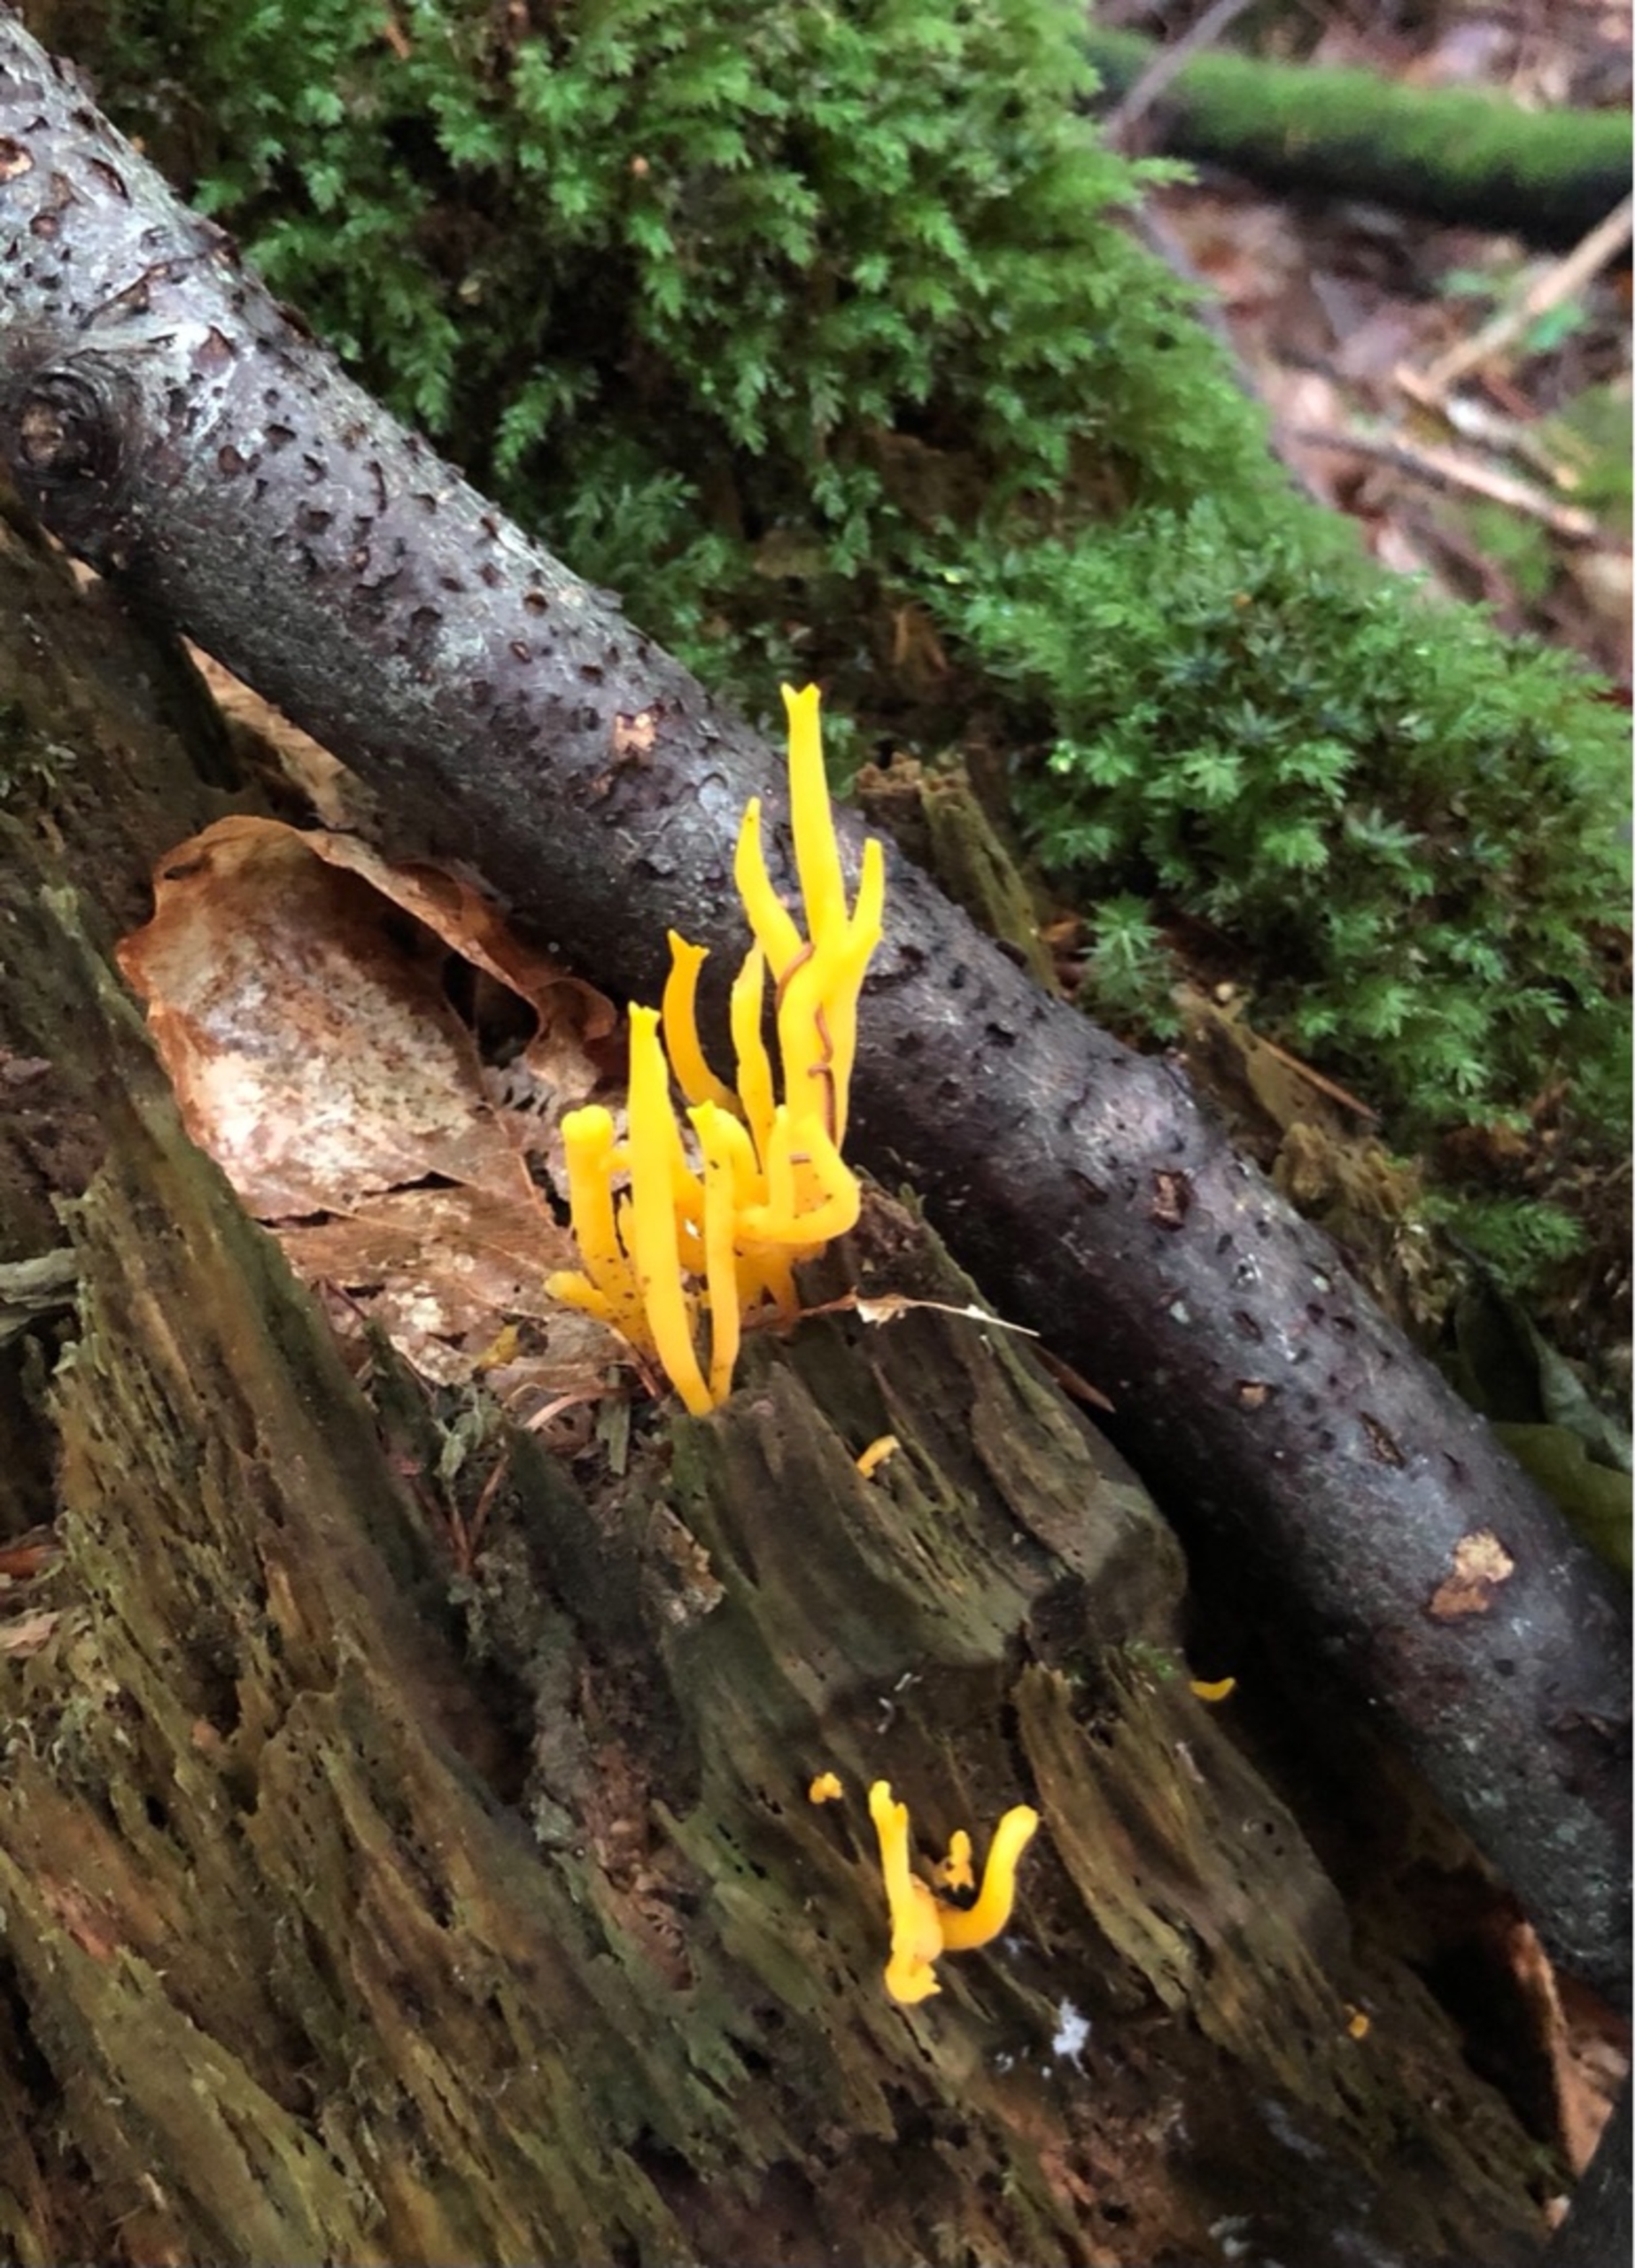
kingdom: Fungi
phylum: Basidiomycota
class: Dacrymycetes
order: Dacrymycetales
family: Dacrymycetaceae
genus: Calocera
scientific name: Calocera cornea
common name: Liden guldgaffel
